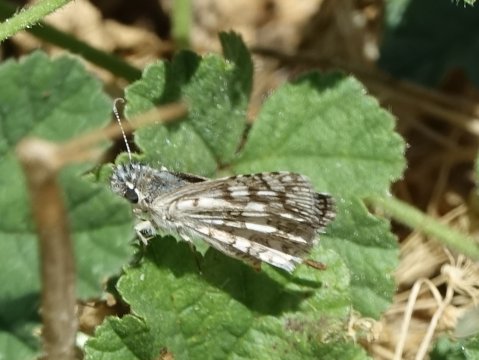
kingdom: Animalia
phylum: Arthropoda
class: Insecta
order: Lepidoptera
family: Hesperiidae
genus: Pyrgus
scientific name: Pyrgus communis
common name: Common Checkered-Skipper
